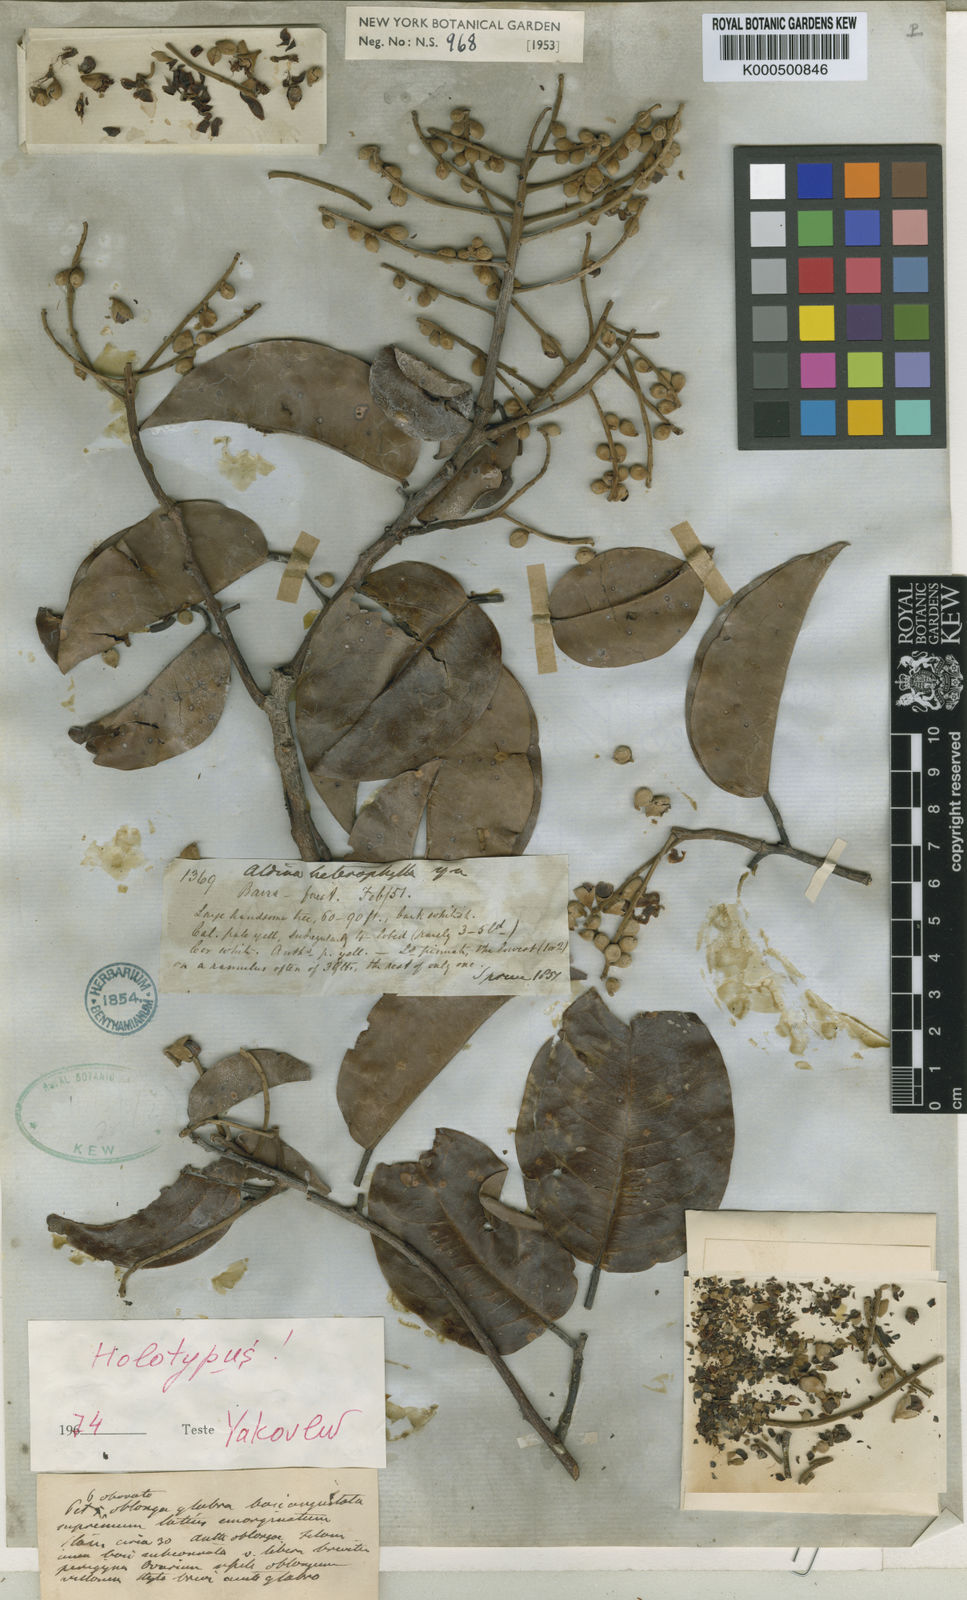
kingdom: Plantae
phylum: Tracheophyta
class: Magnoliopsida
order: Fabales
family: Fabaceae
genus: Aldina
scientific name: Aldina heterophylla
